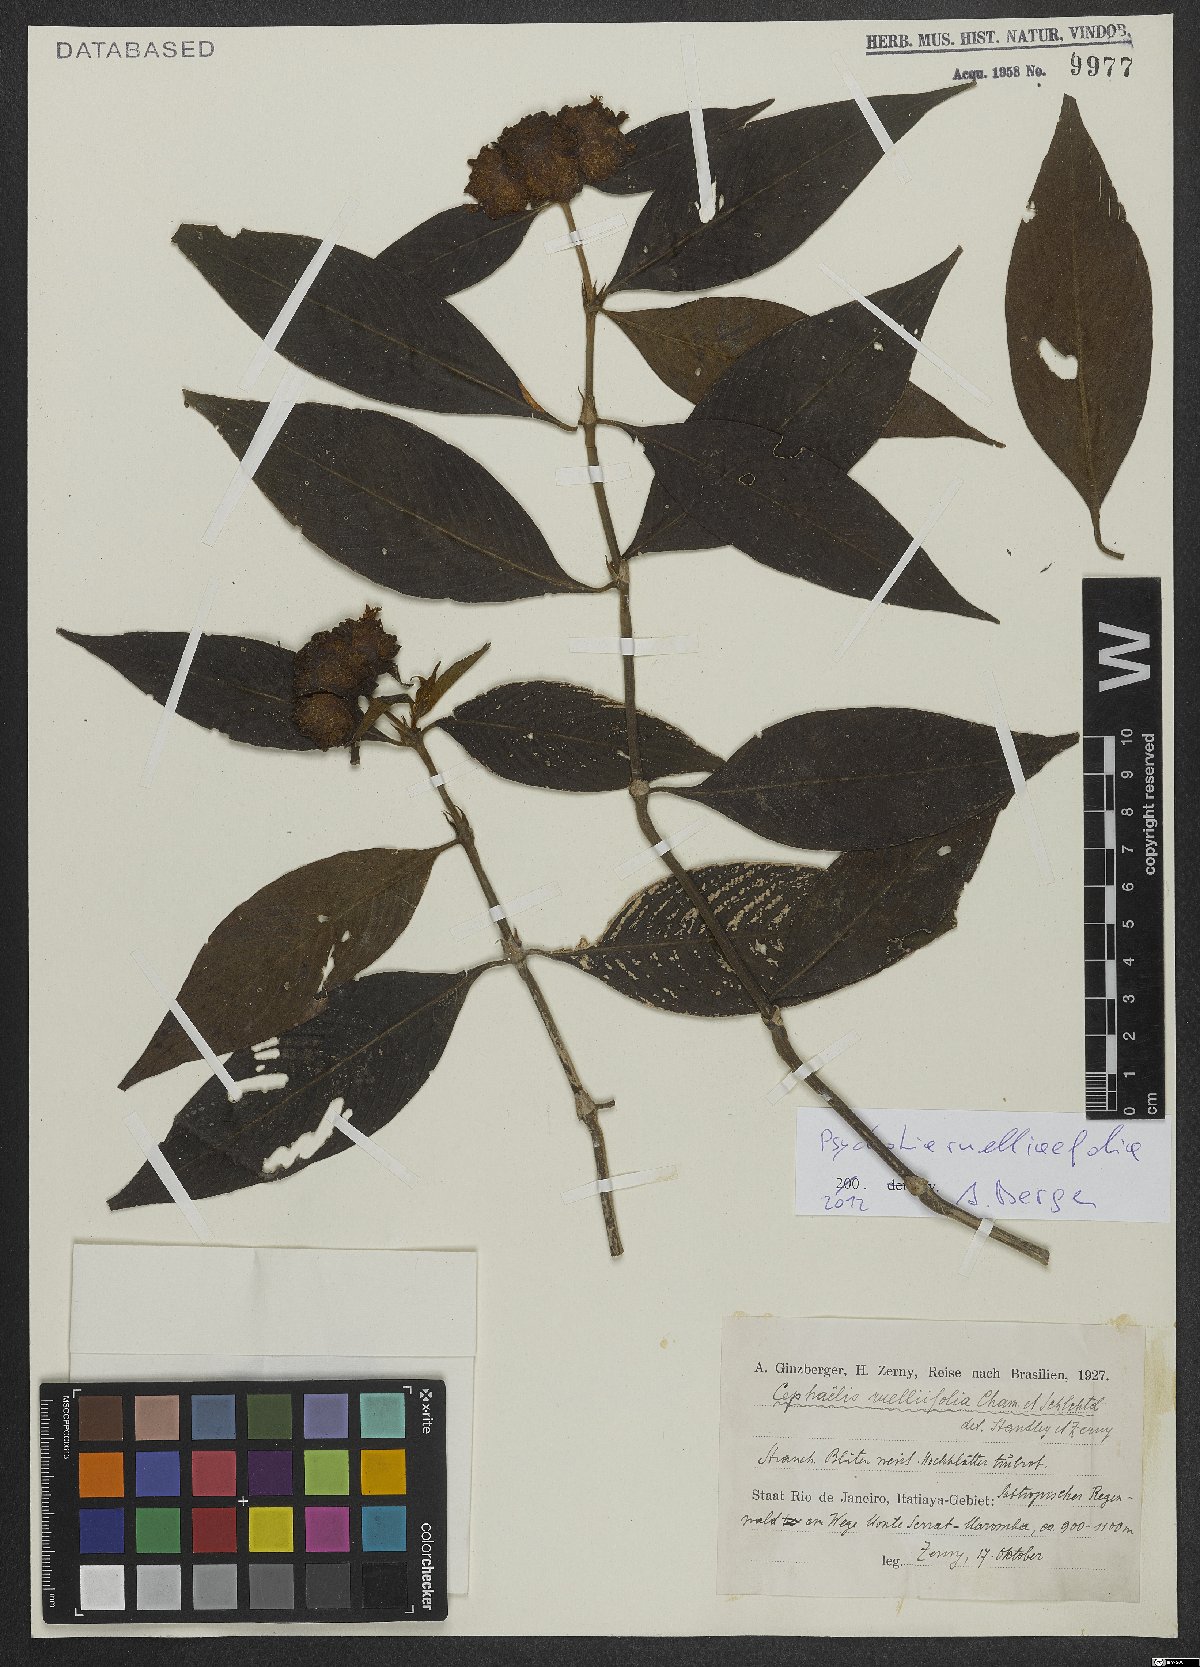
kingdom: Plantae
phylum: Tracheophyta
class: Magnoliopsida
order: Gentianales
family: Rubiaceae
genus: Palicourea
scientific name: Palicourea ruelliifolia
